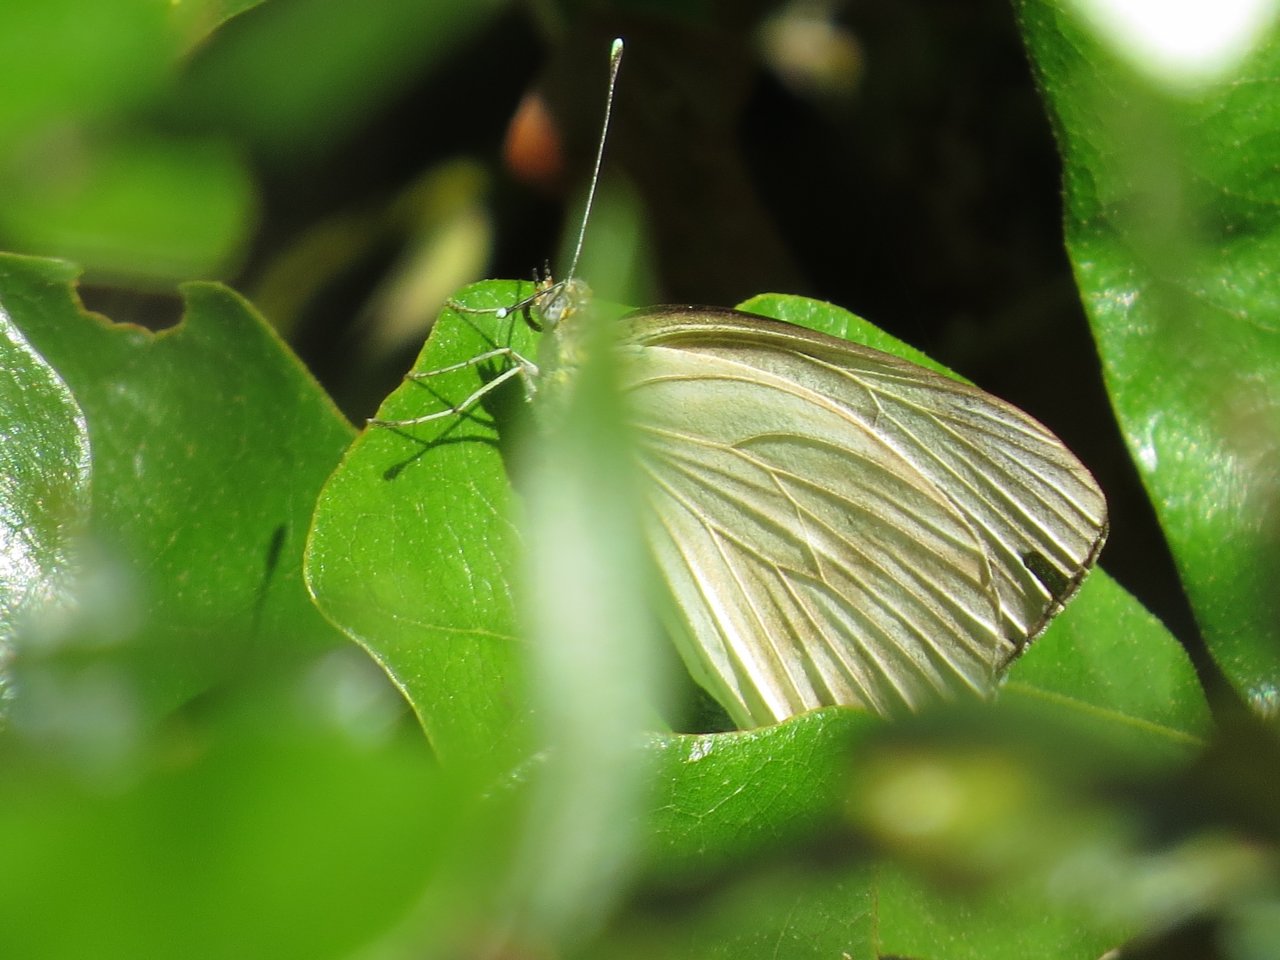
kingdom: Animalia
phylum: Arthropoda
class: Insecta
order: Lepidoptera
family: Pieridae
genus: Ascia
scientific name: Ascia monuste
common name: Great Southern White
